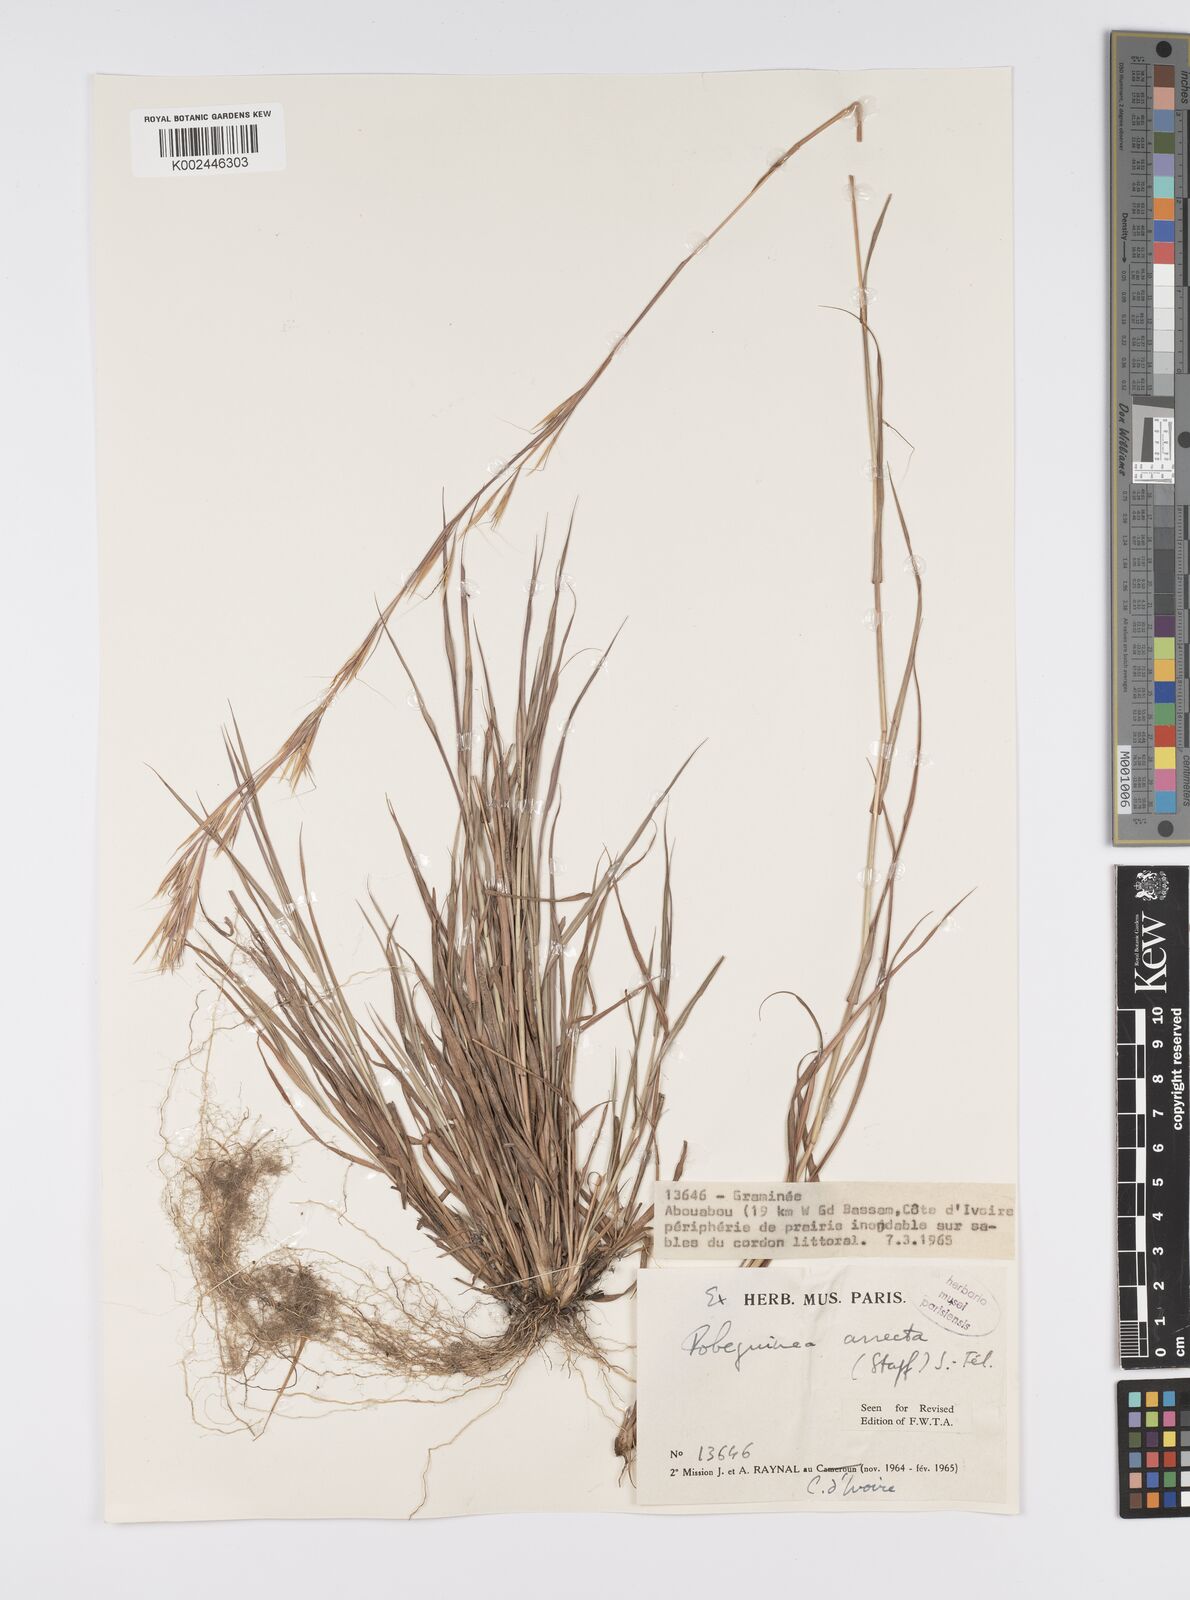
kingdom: Plantae
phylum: Tracheophyta
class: Liliopsida
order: Poales
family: Poaceae
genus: Anadelphia
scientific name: Anadelphia afzeliana
